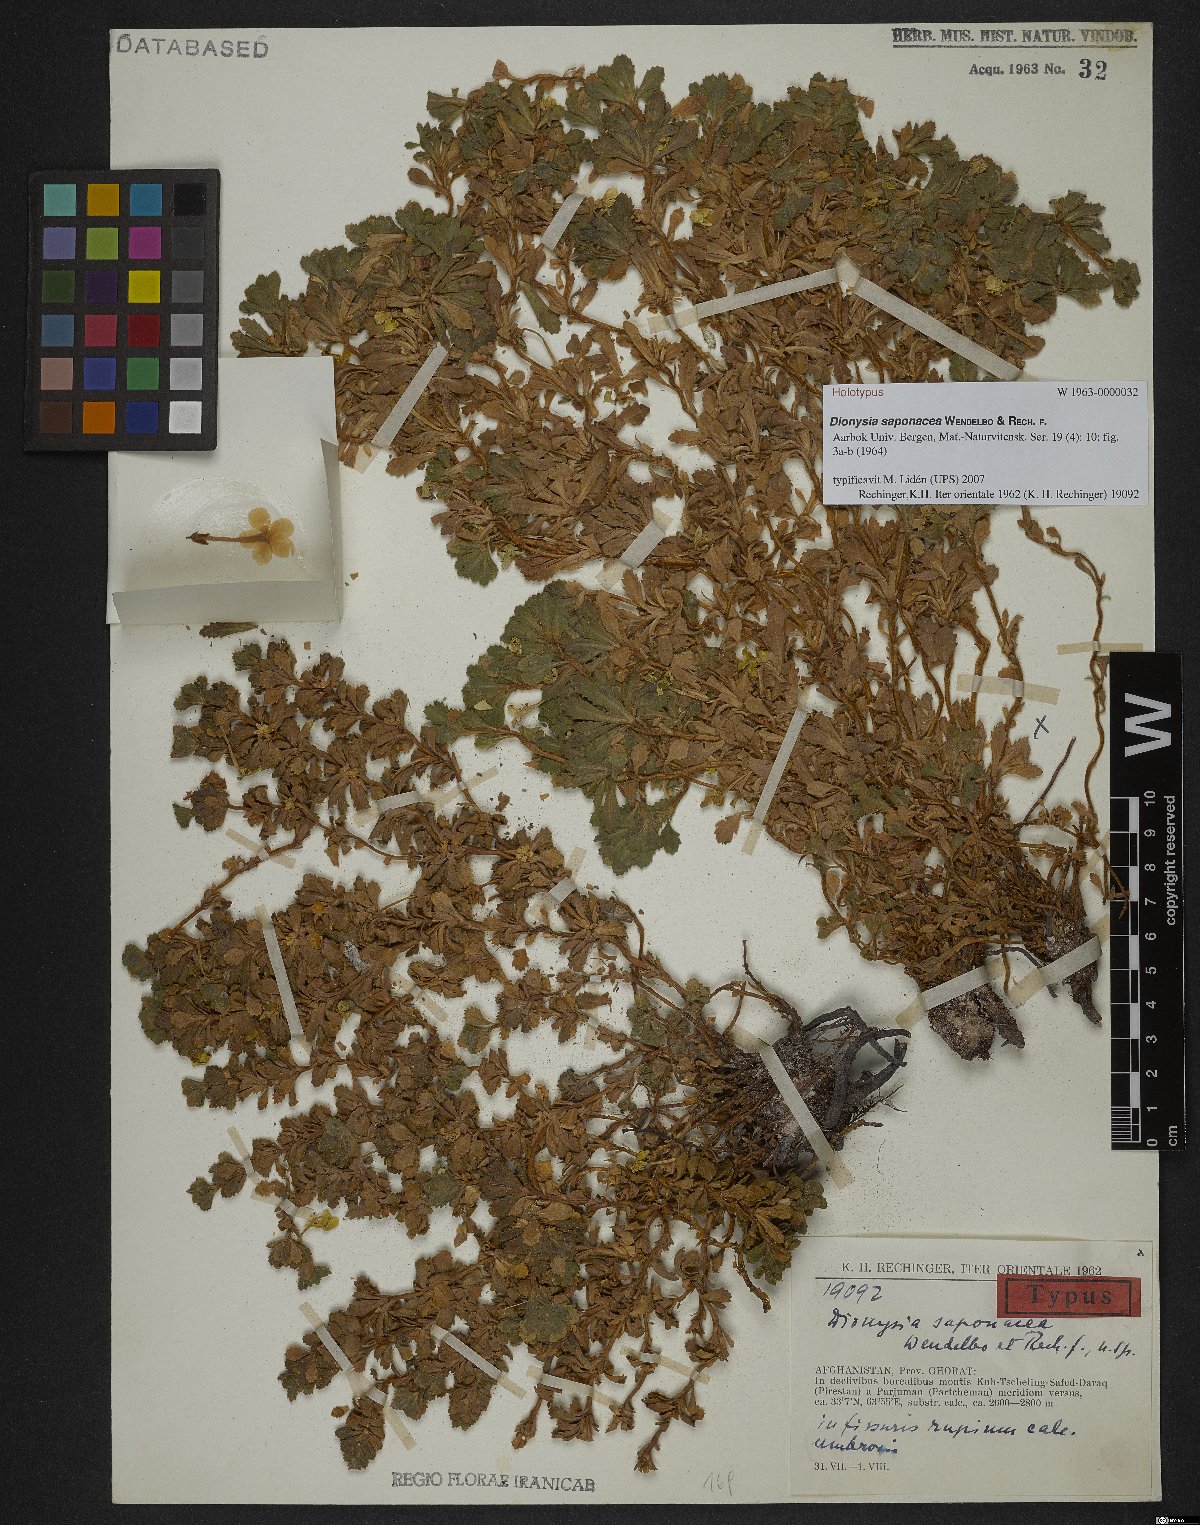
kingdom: Plantae
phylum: Tracheophyta
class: Magnoliopsida
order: Ericales
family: Primulaceae
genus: Dionysia
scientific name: Dionysia saponacea
